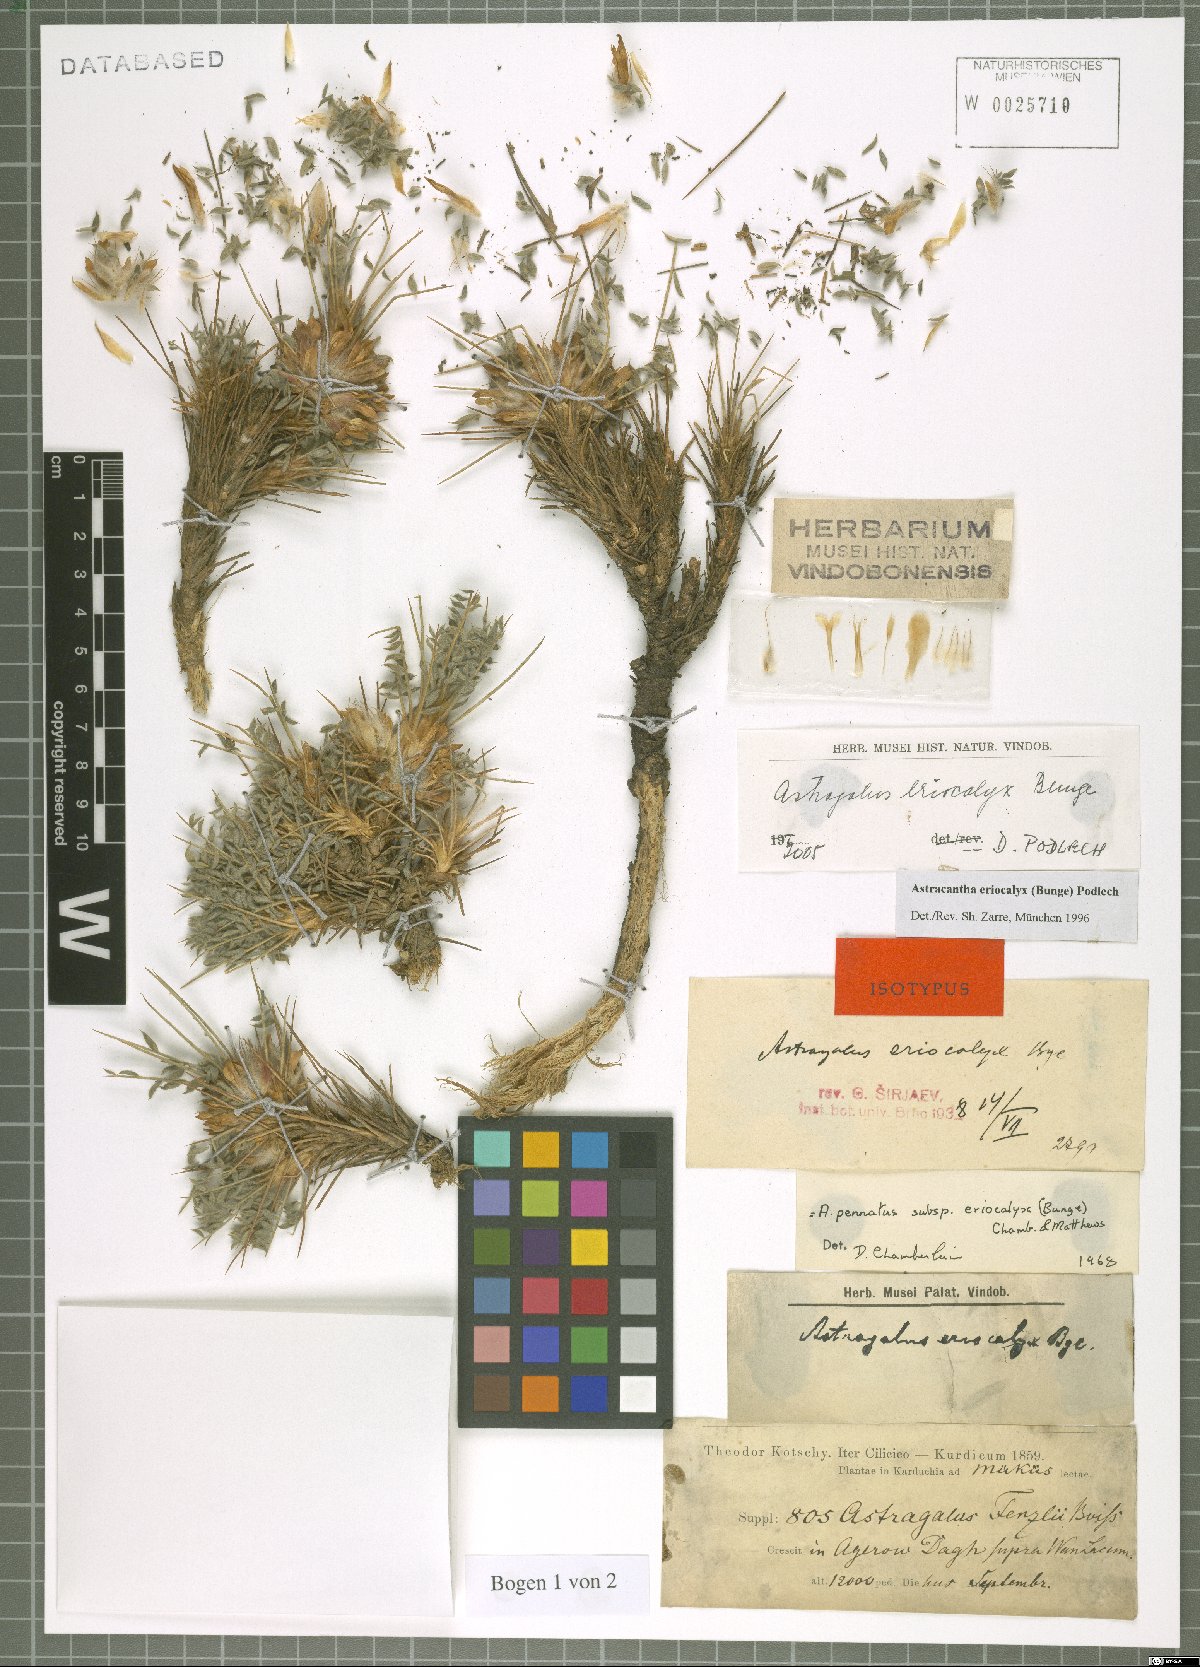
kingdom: Plantae
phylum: Tracheophyta
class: Magnoliopsida
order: Fabales
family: Fabaceae
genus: Astragalus
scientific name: Astragalus eriocalyx
